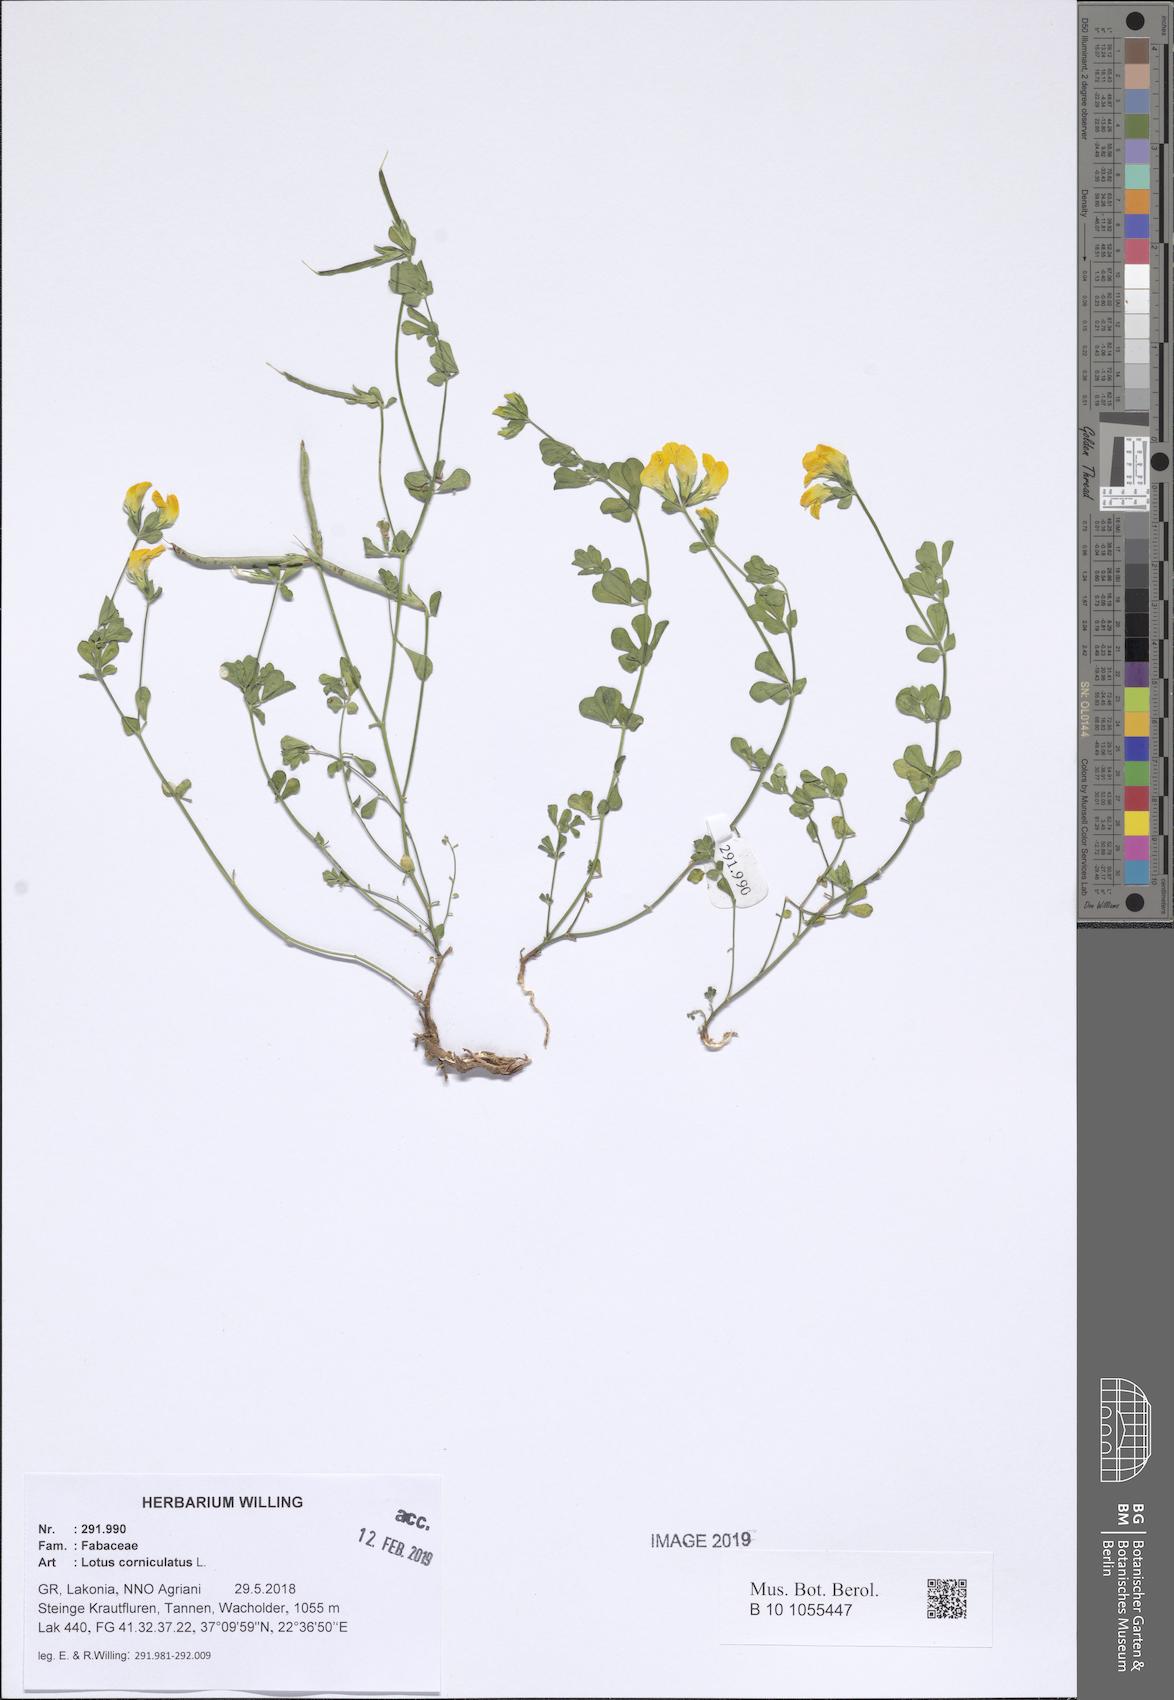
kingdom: Plantae
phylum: Tracheophyta
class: Magnoliopsida
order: Fabales
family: Fabaceae
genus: Lotus
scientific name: Lotus corniculatus
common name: Common bird's-foot-trefoil
